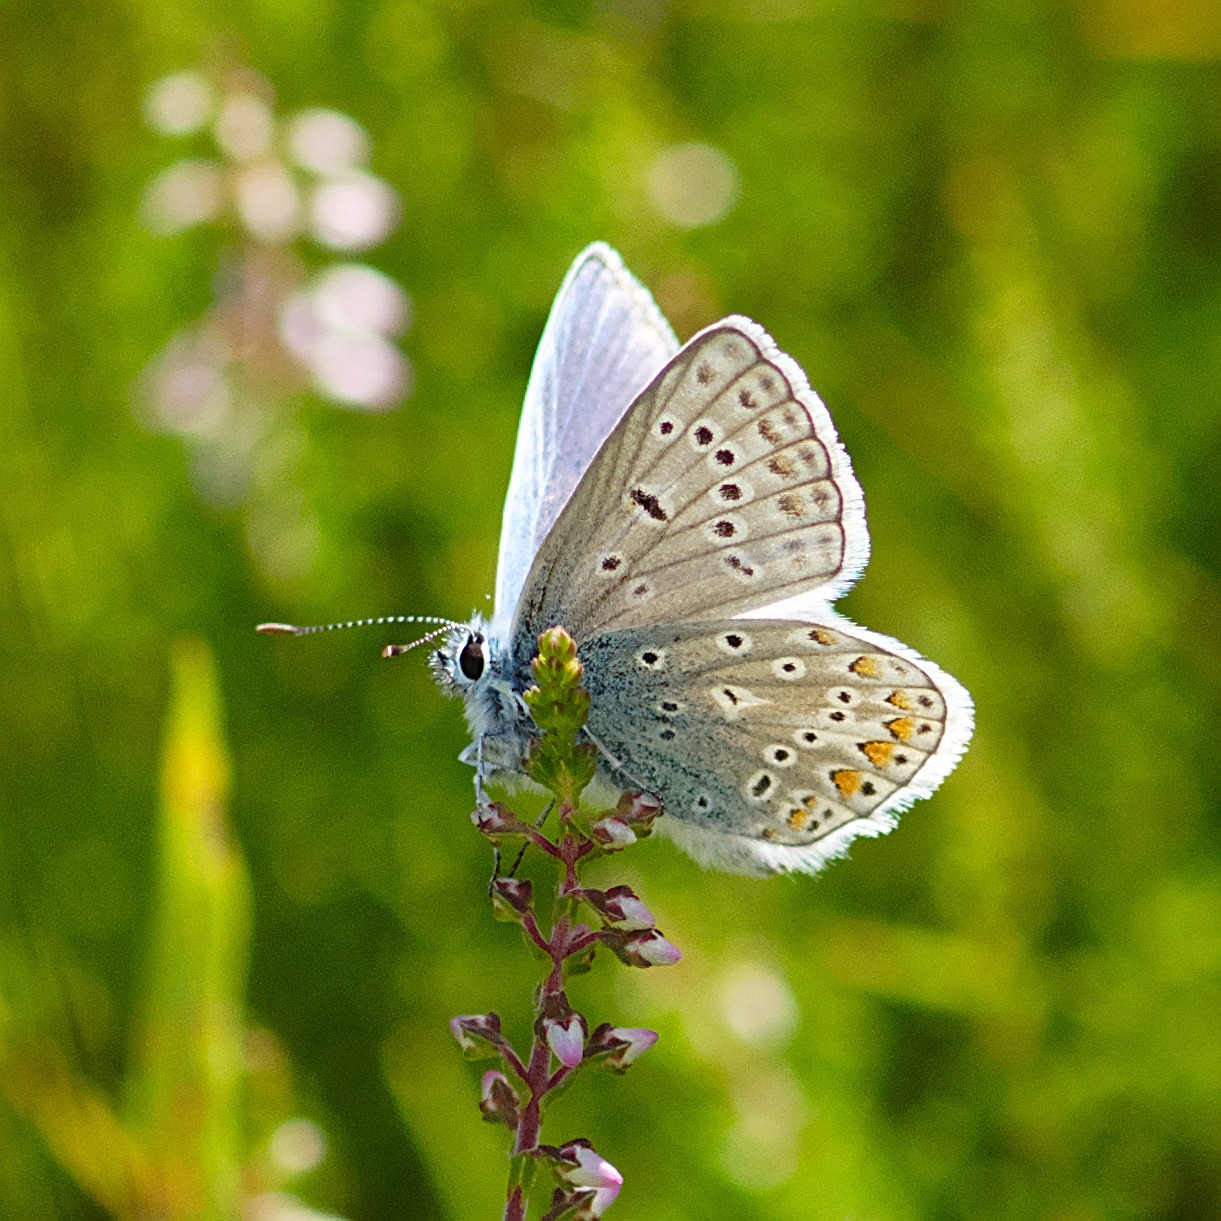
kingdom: Animalia
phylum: Arthropoda
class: Insecta
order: Lepidoptera
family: Lycaenidae
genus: Polyommatus
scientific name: Polyommatus icarus
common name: Almindelig blåfugl
